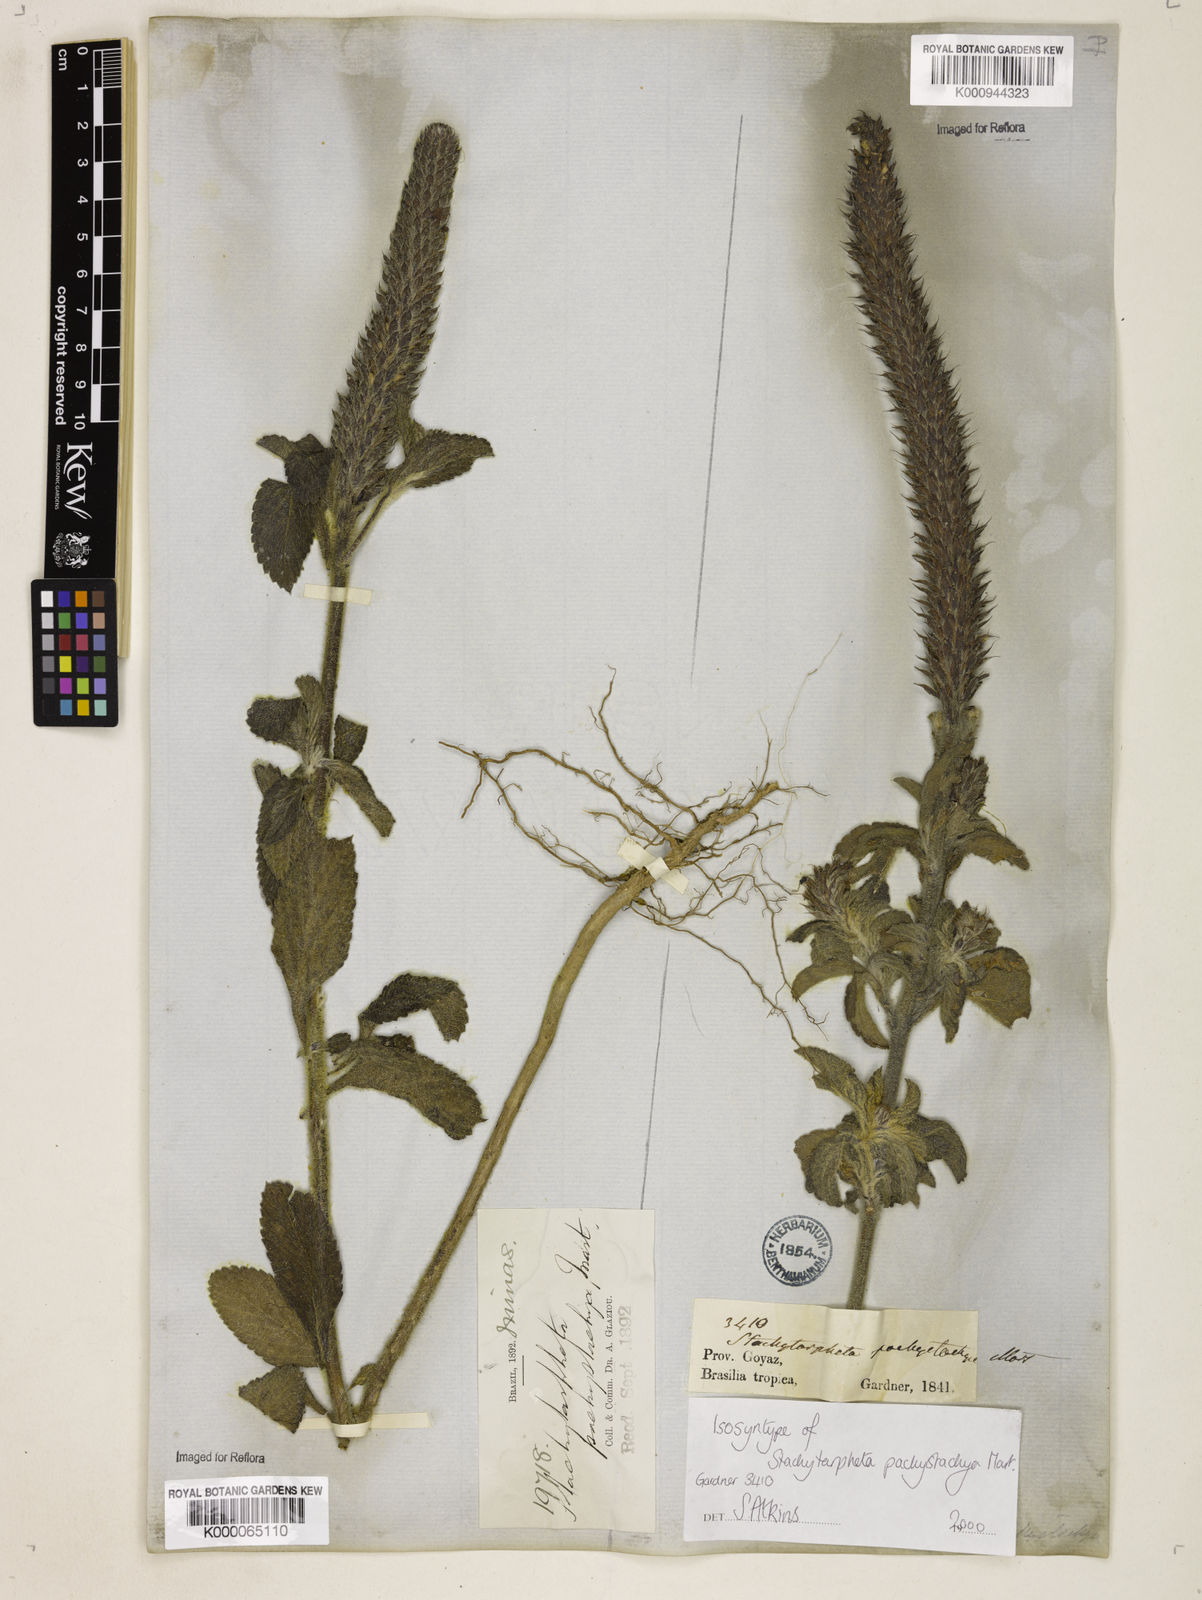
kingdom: Plantae
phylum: Tracheophyta
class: Magnoliopsida
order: Lamiales
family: Verbenaceae
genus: Stachytarpheta
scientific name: Stachytarpheta pachystachya
